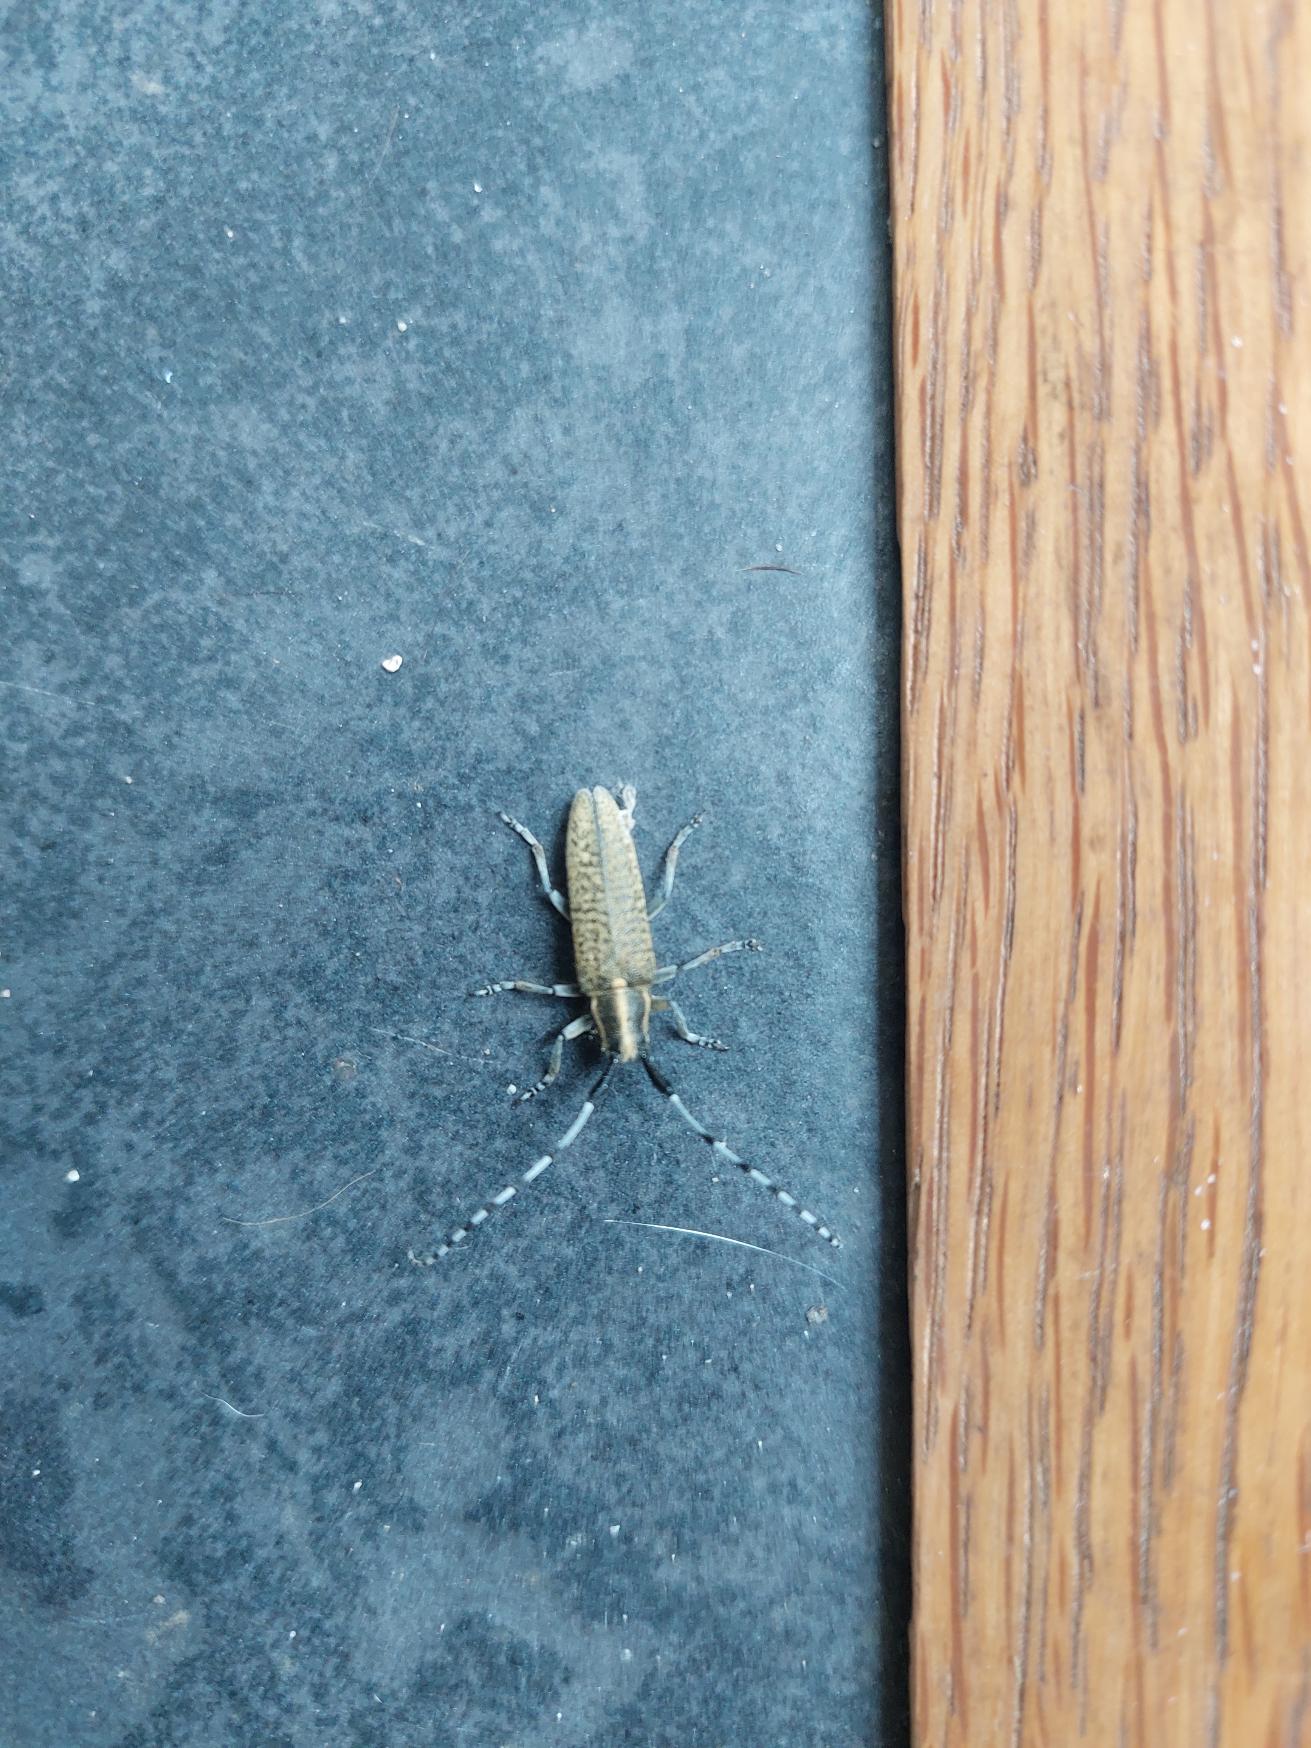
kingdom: Animalia
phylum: Arthropoda
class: Insecta
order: Coleoptera
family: Cerambycidae
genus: Agapanthia
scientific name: Agapanthia villosoviridescens
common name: Tidselbuk
